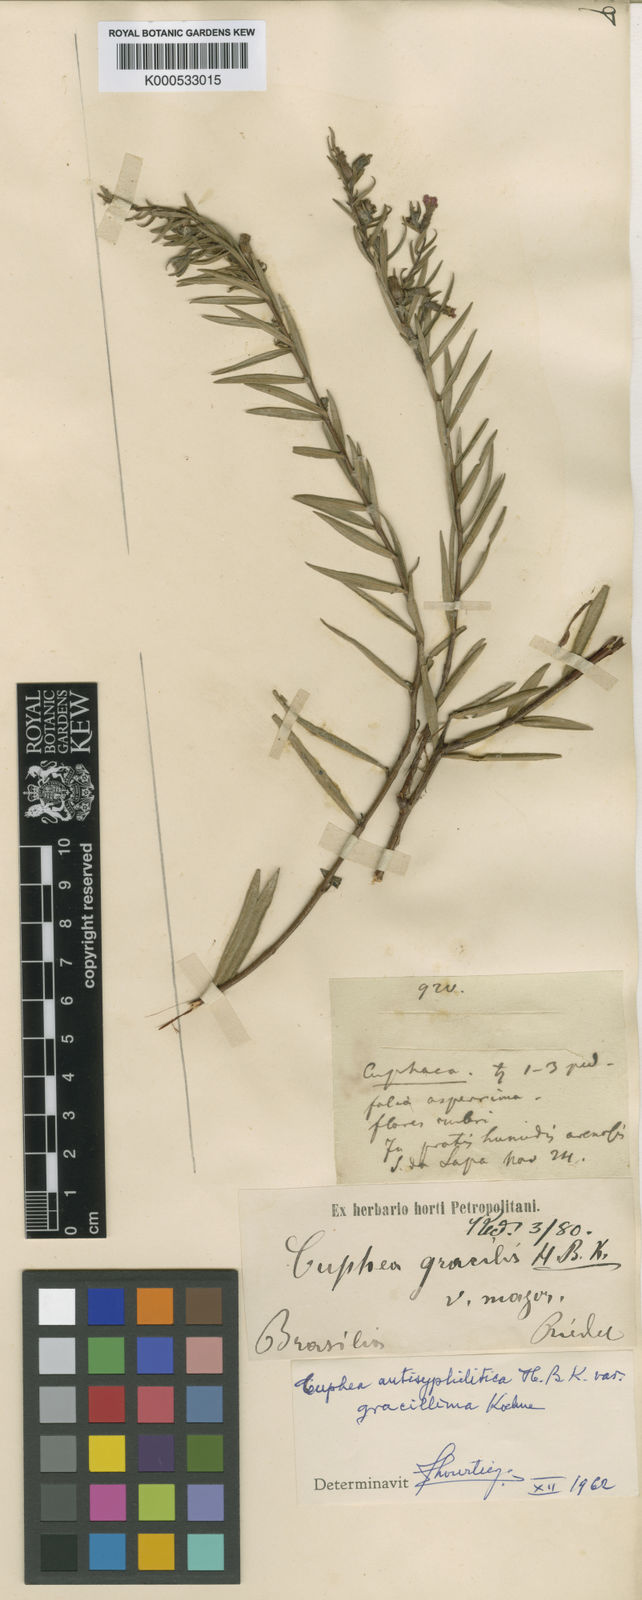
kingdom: Plantae
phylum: Tracheophyta
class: Magnoliopsida
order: Myrtales
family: Lythraceae
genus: Cuphea
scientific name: Cuphea antisyphilitica
